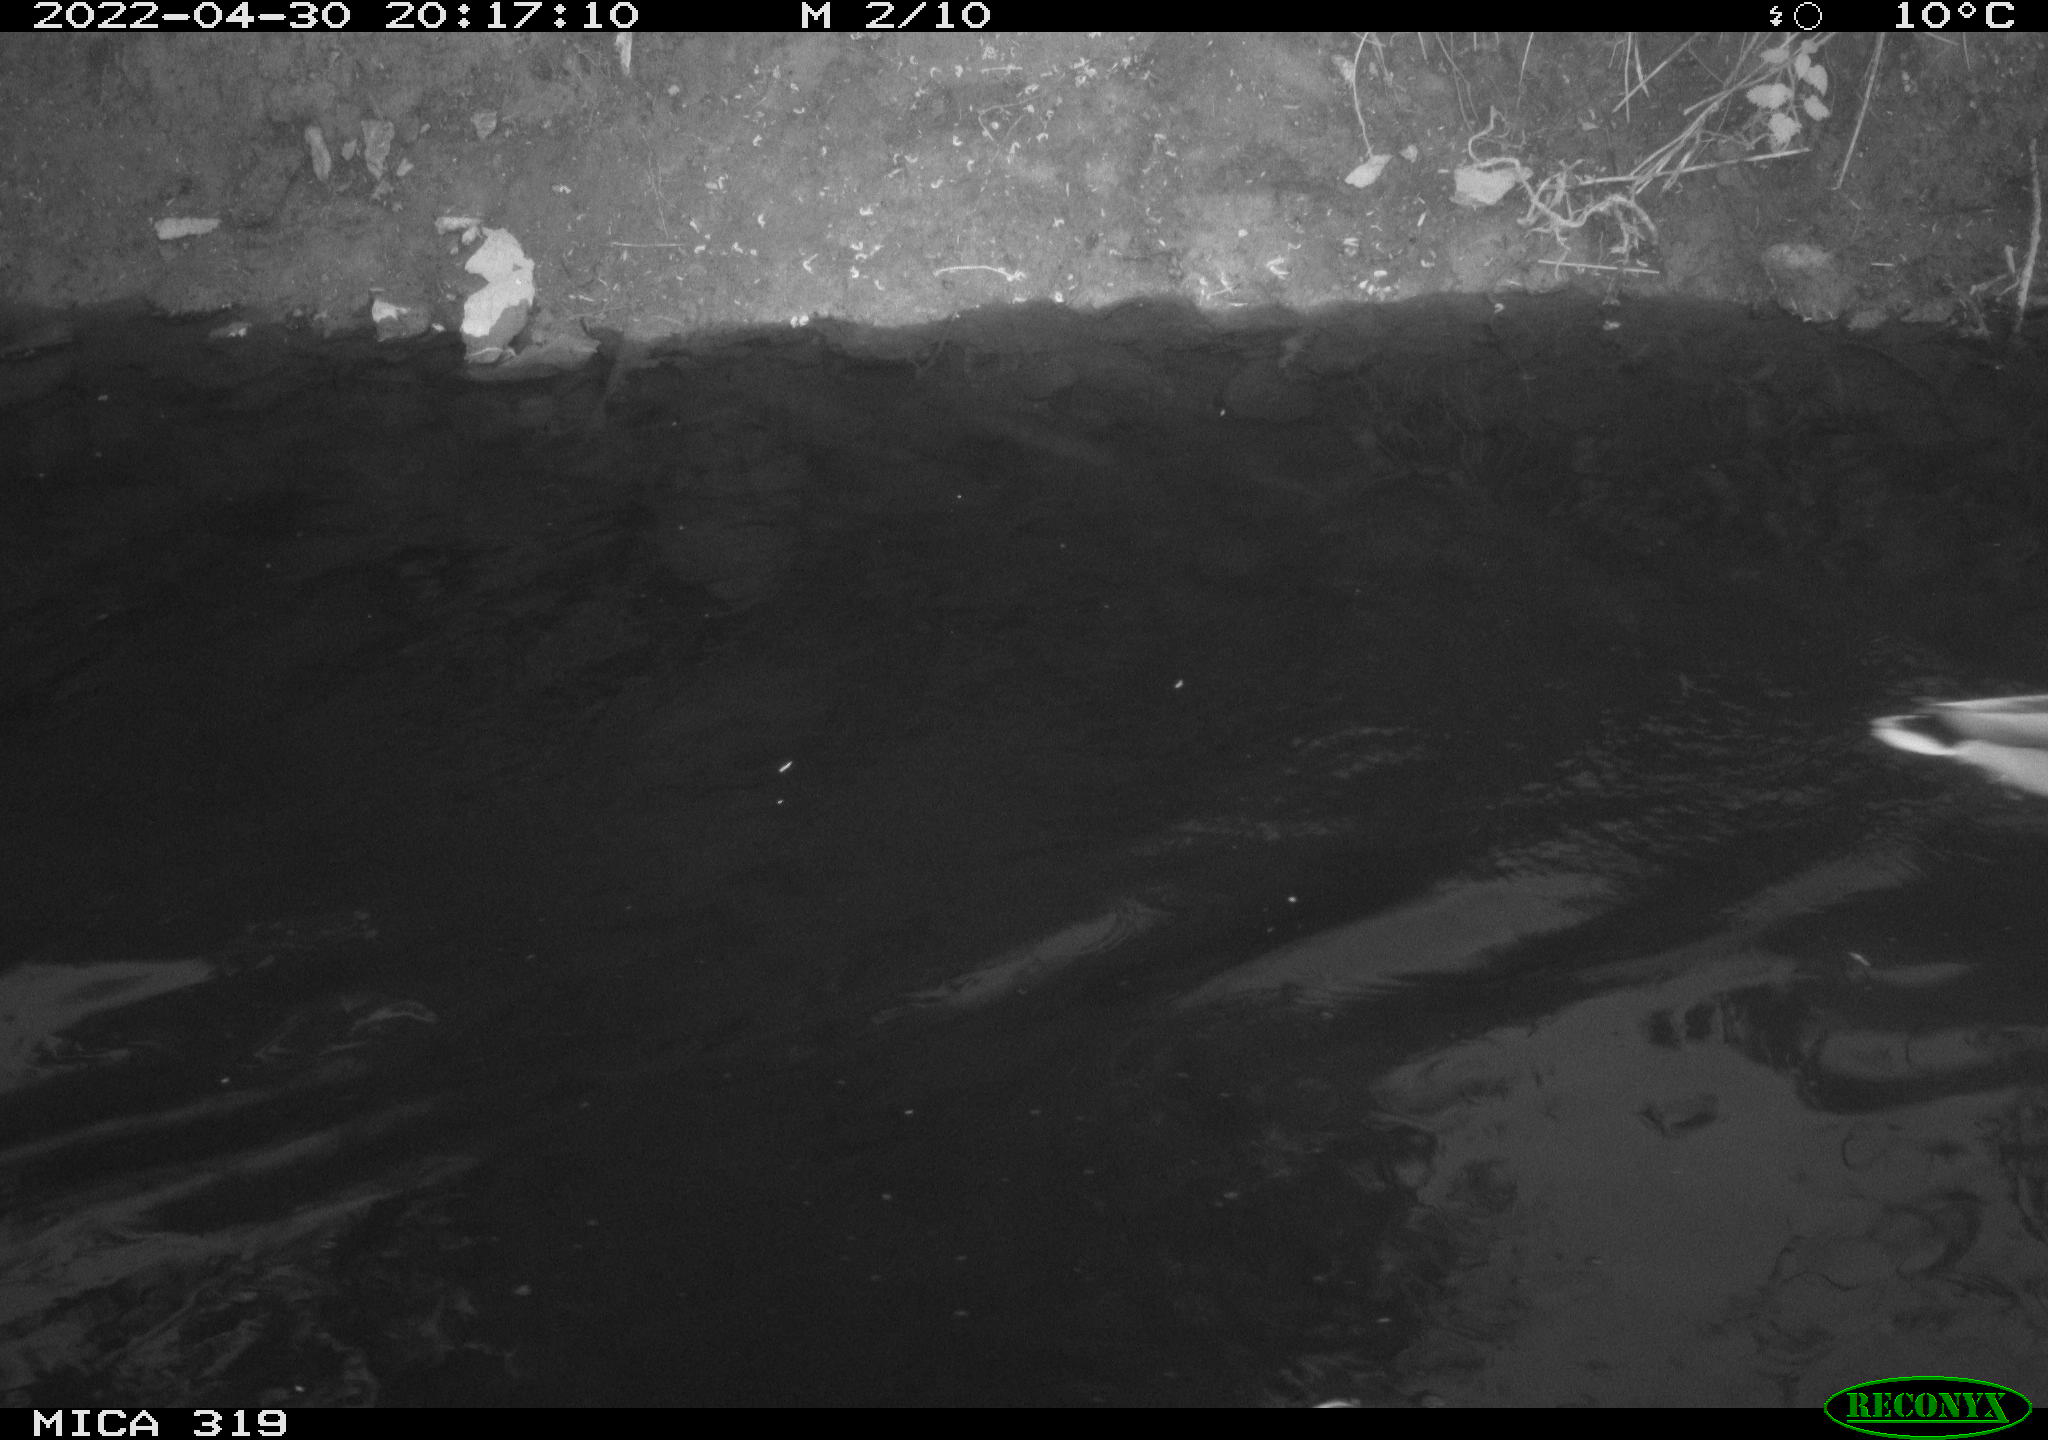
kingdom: Animalia
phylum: Chordata
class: Aves
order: Anseriformes
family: Anatidae
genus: Anas
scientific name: Anas platyrhynchos
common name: Mallard
